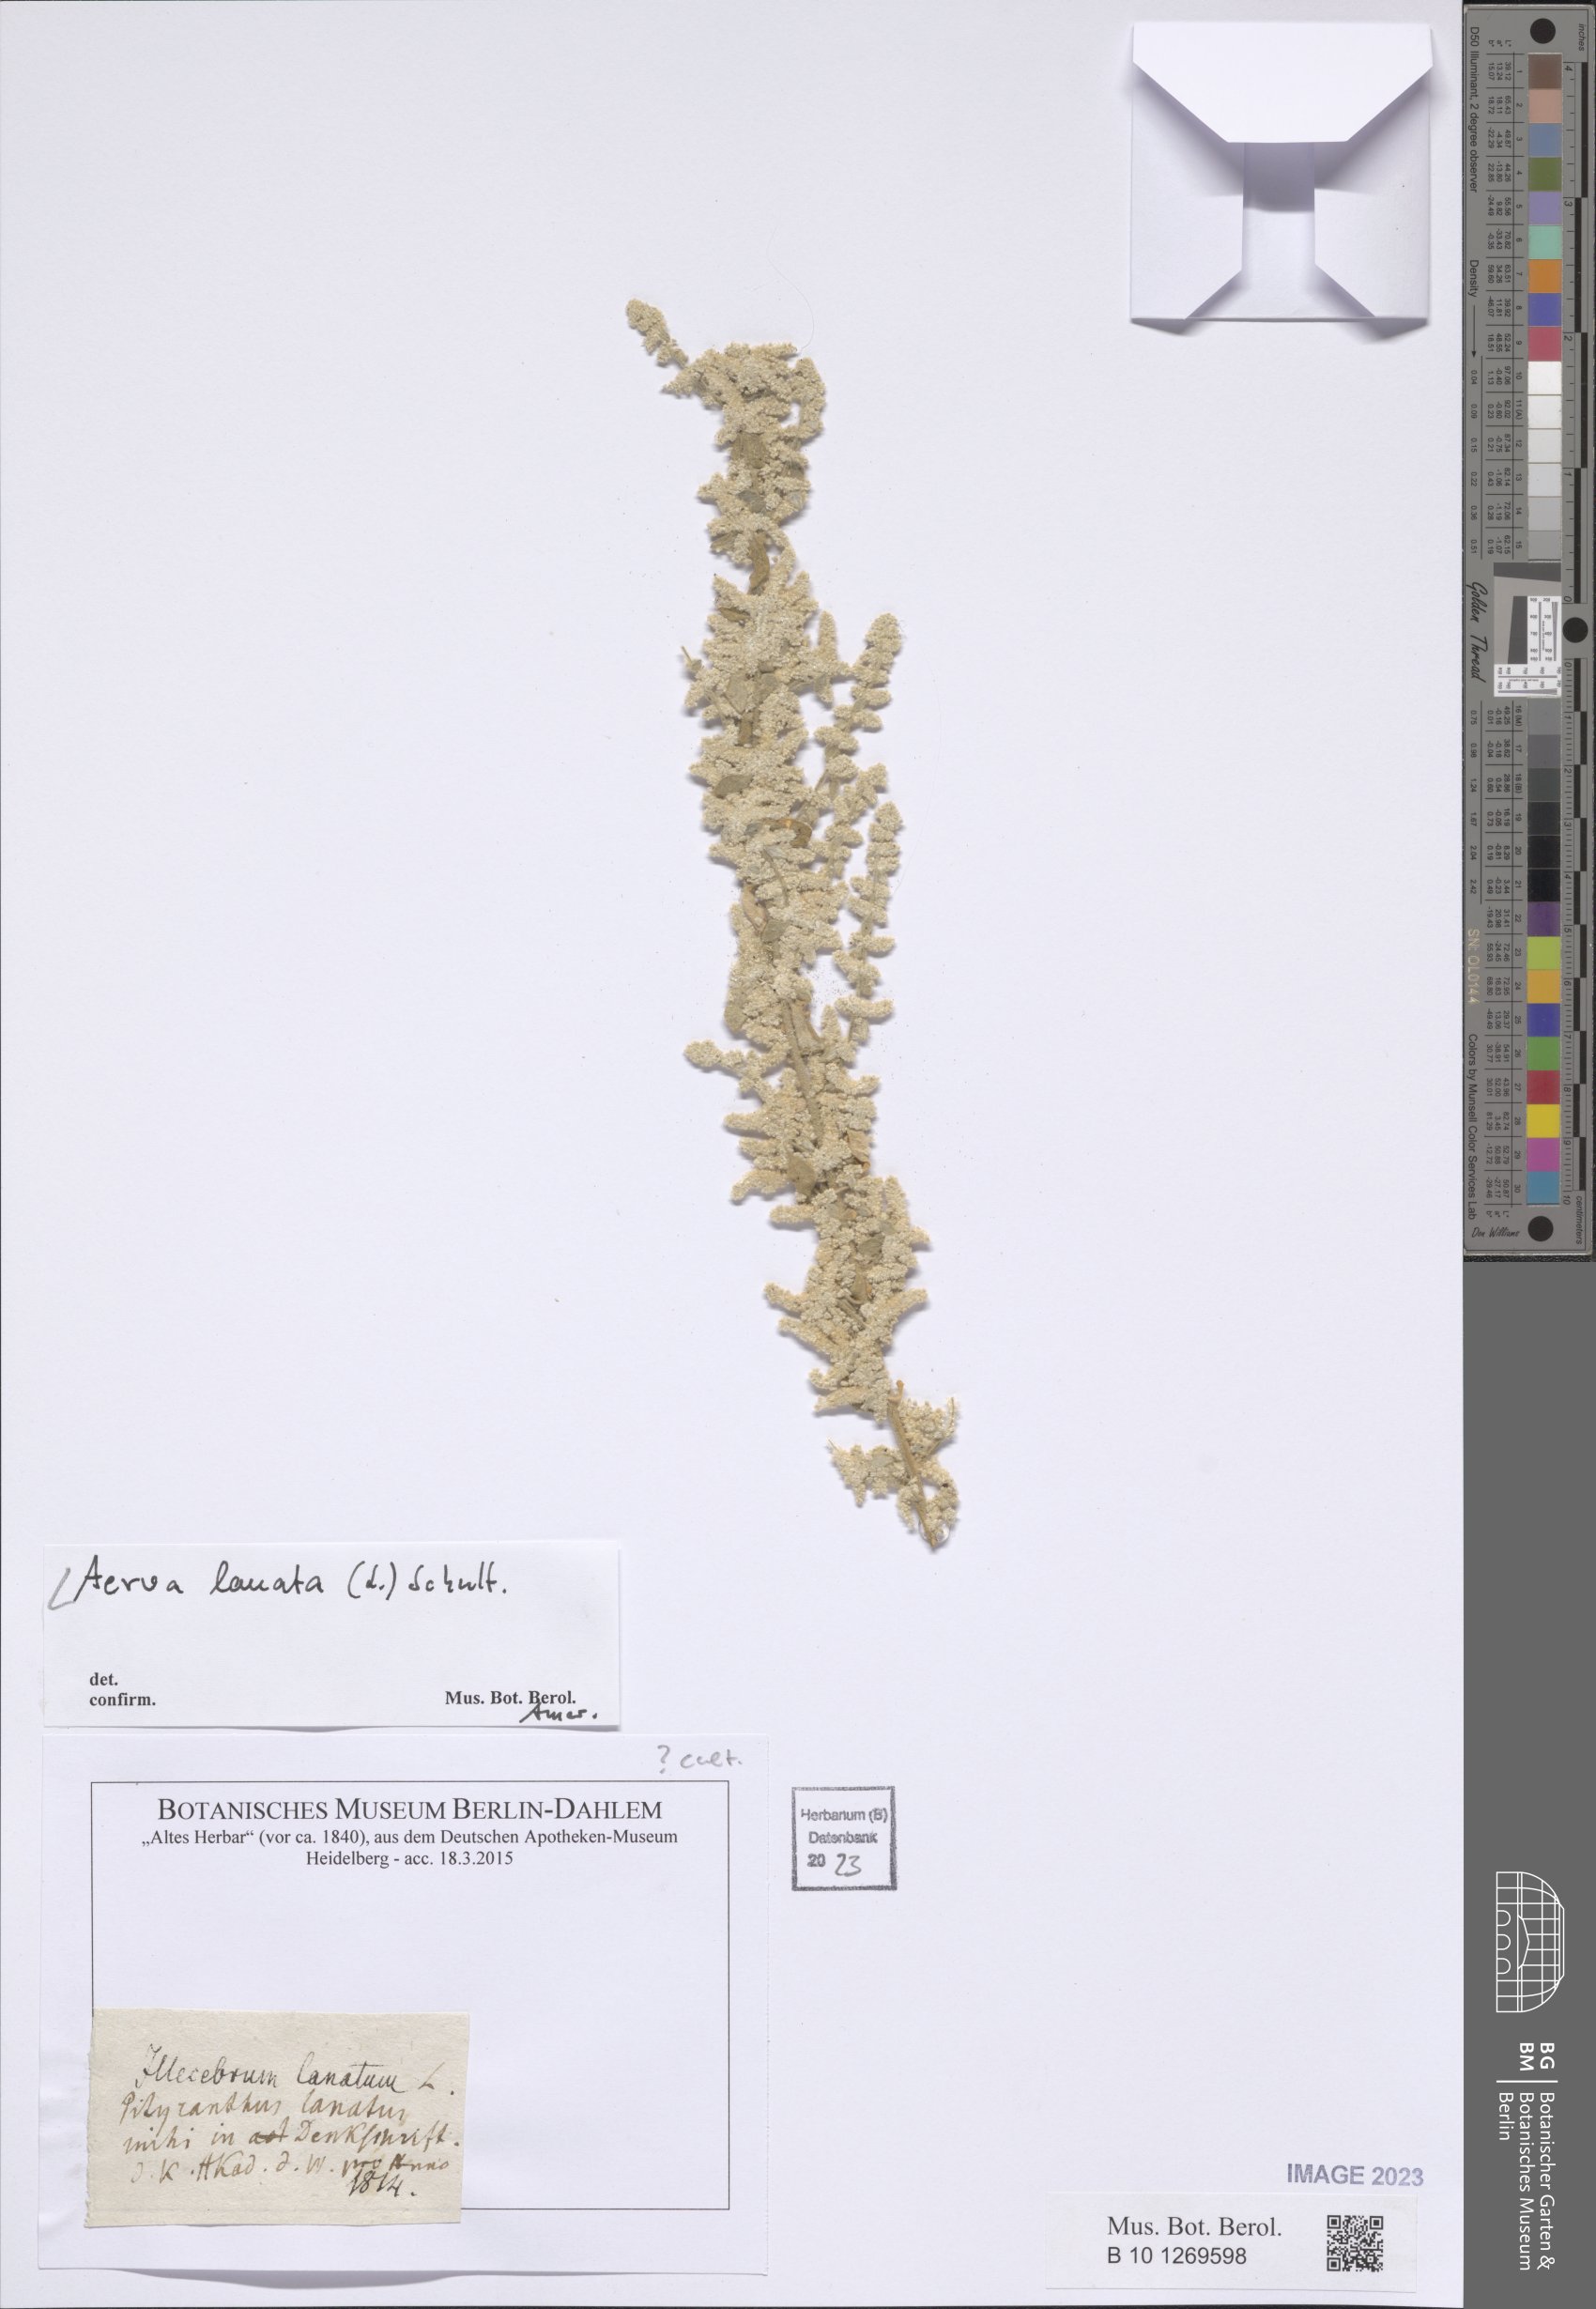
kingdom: Plantae
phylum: Tracheophyta
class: Magnoliopsida
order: Caryophyllales
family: Amaranthaceae
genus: Ouret
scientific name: Ouret lanata
